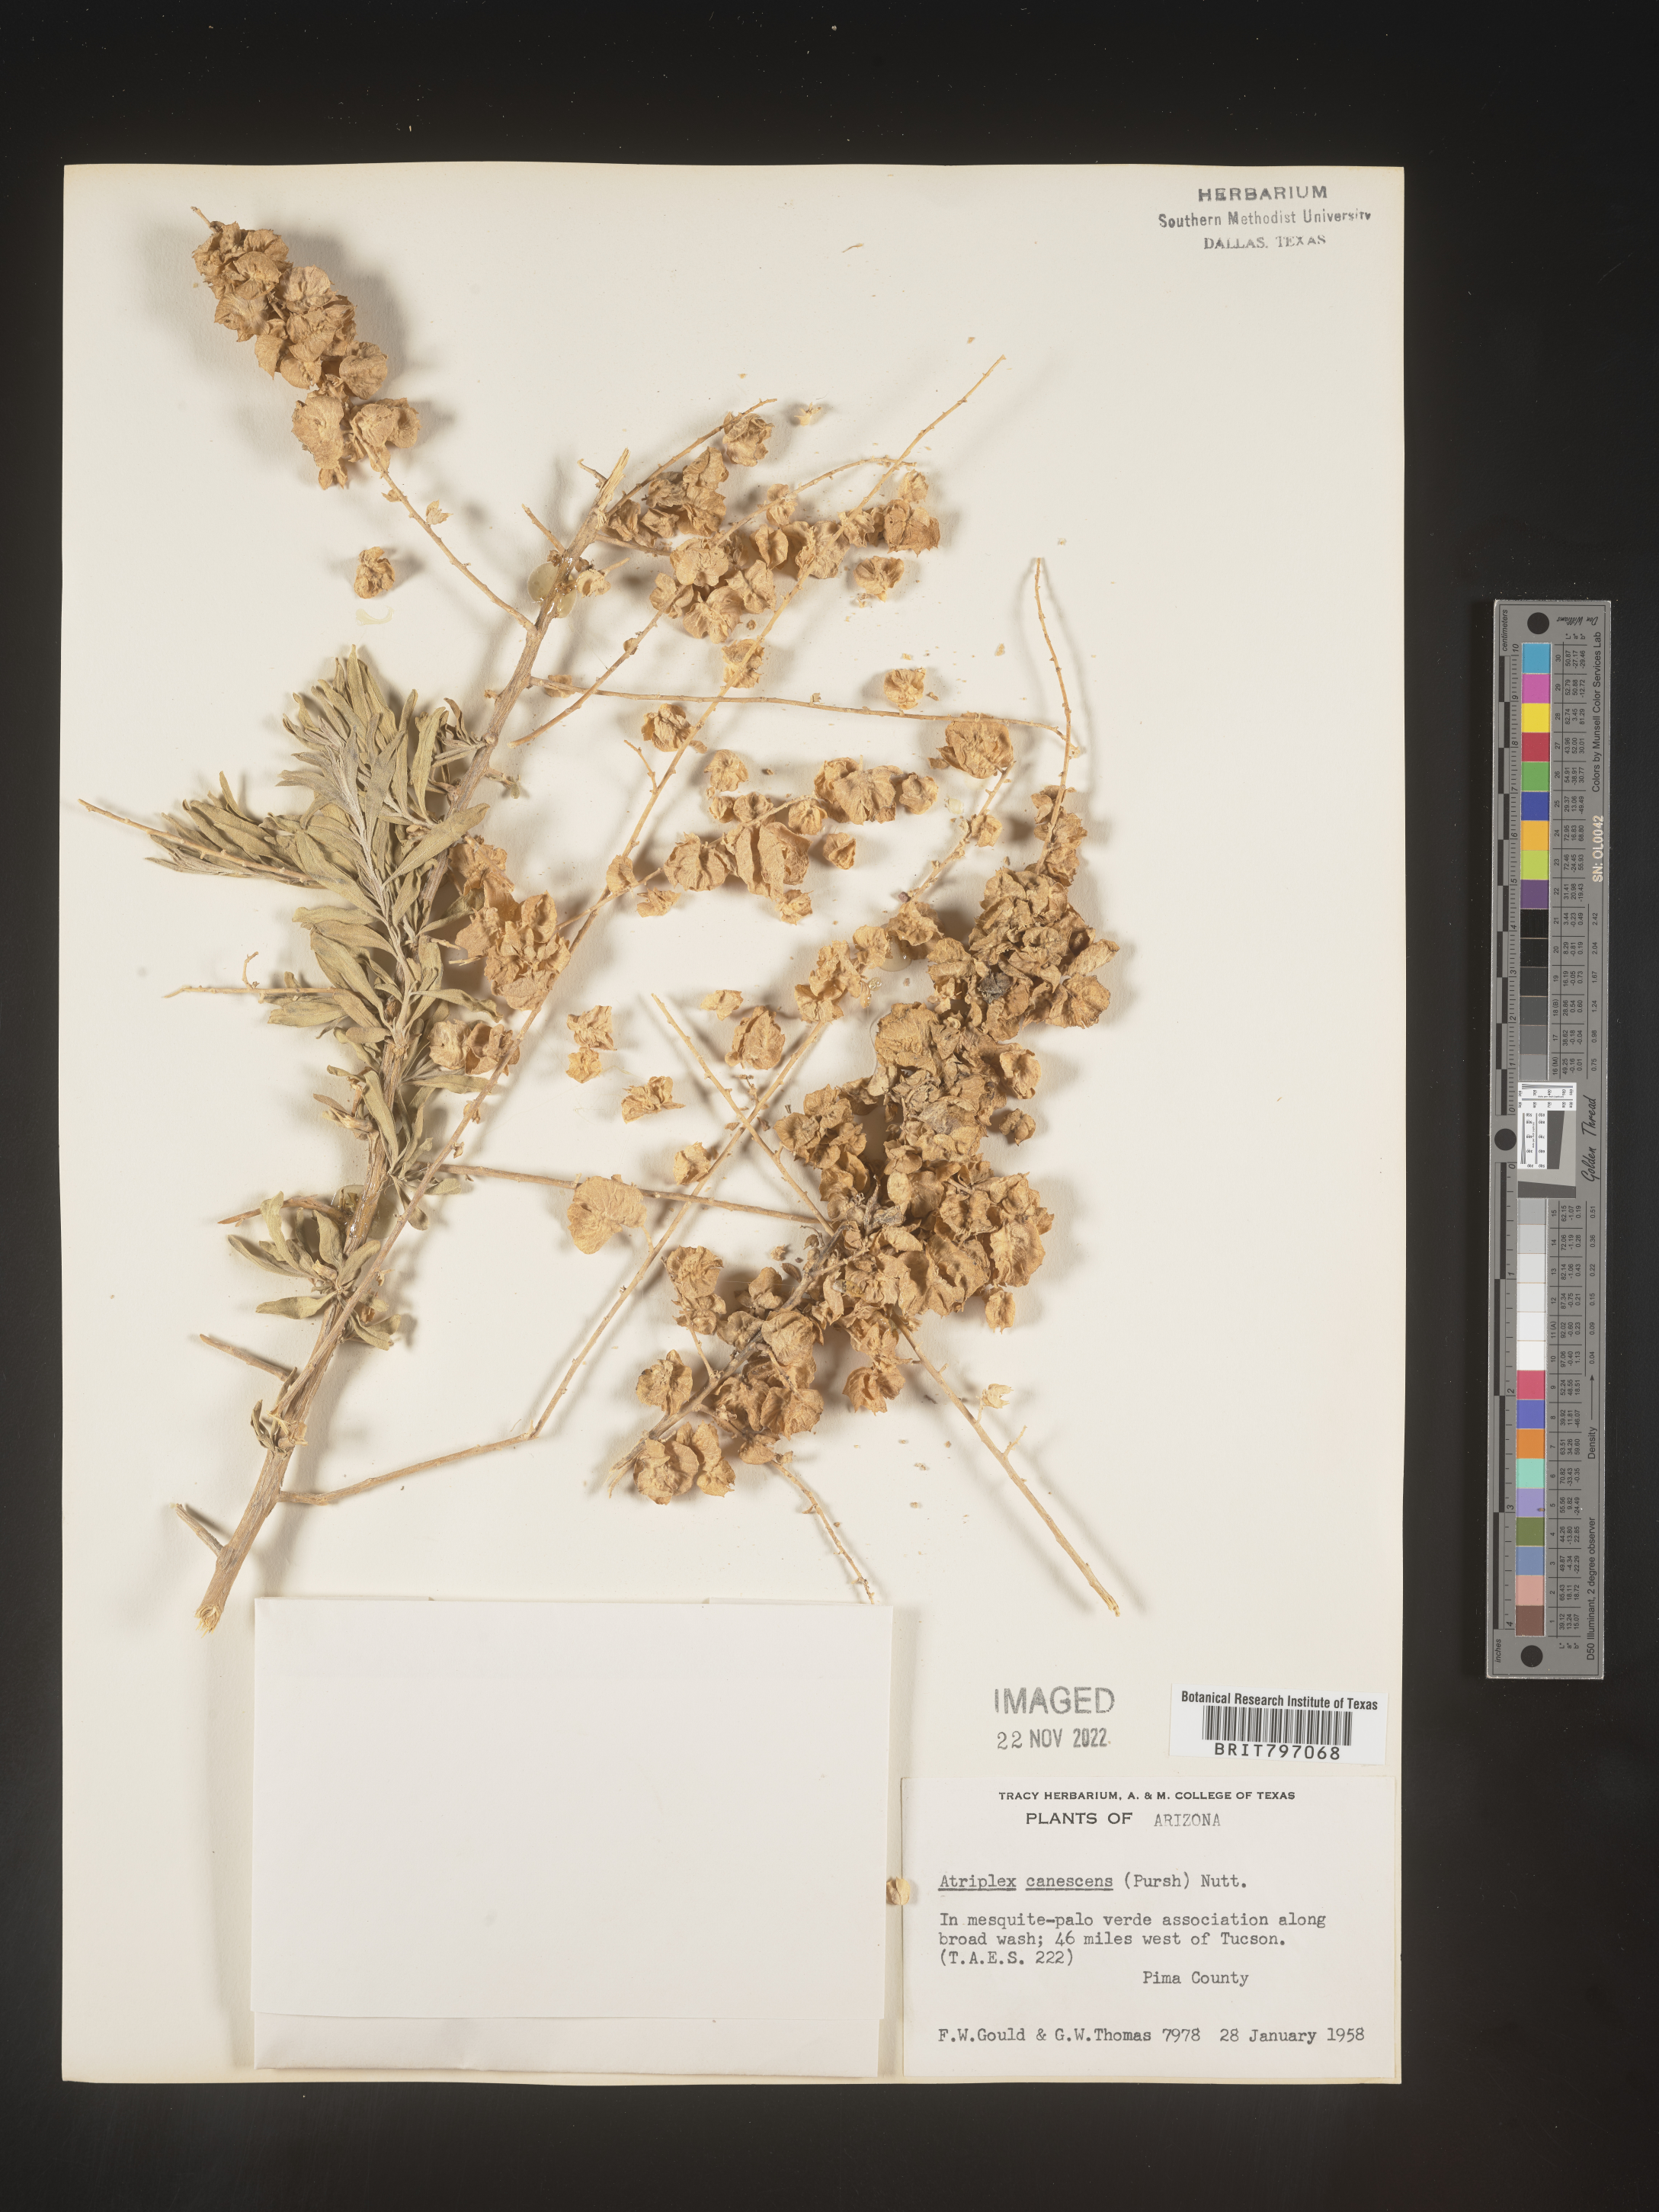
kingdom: Plantae
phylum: Tracheophyta
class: Magnoliopsida
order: Caryophyllales
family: Amaranthaceae
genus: Atriplex
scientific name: Atriplex canescens
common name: Four-wing saltbush
